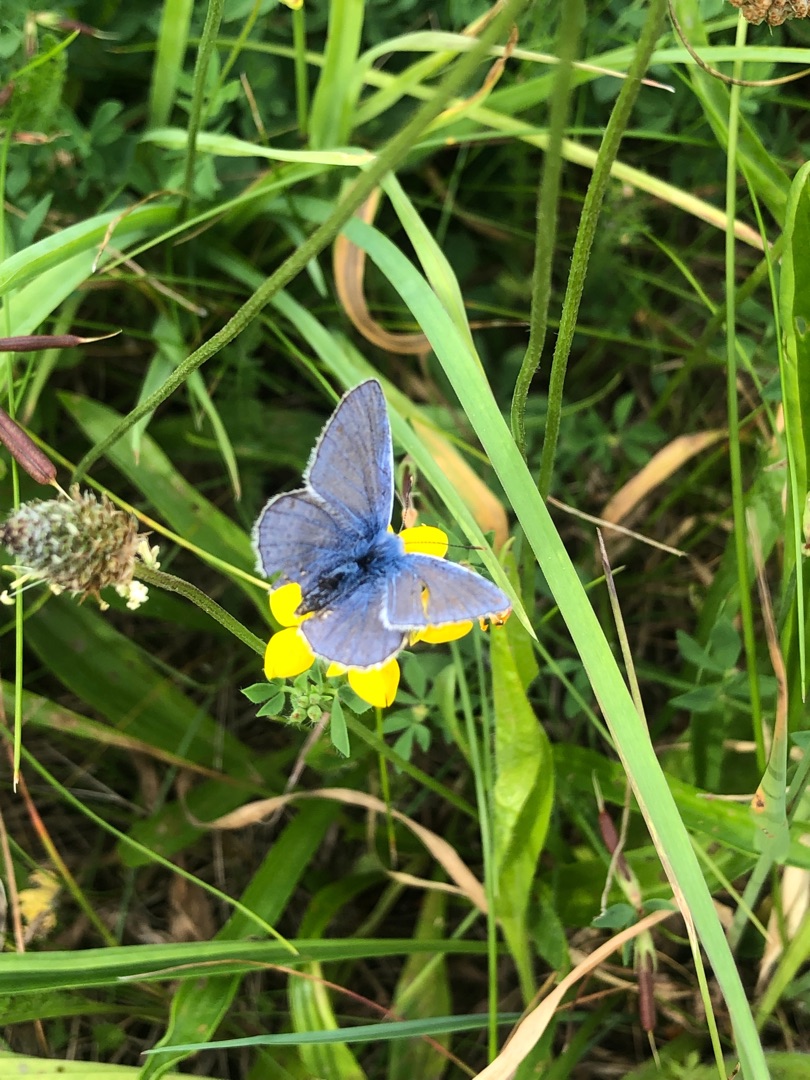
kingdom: Animalia
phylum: Arthropoda
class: Insecta
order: Lepidoptera
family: Lycaenidae
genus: Polyommatus
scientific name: Polyommatus icarus
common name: Almindelig blåfugl
